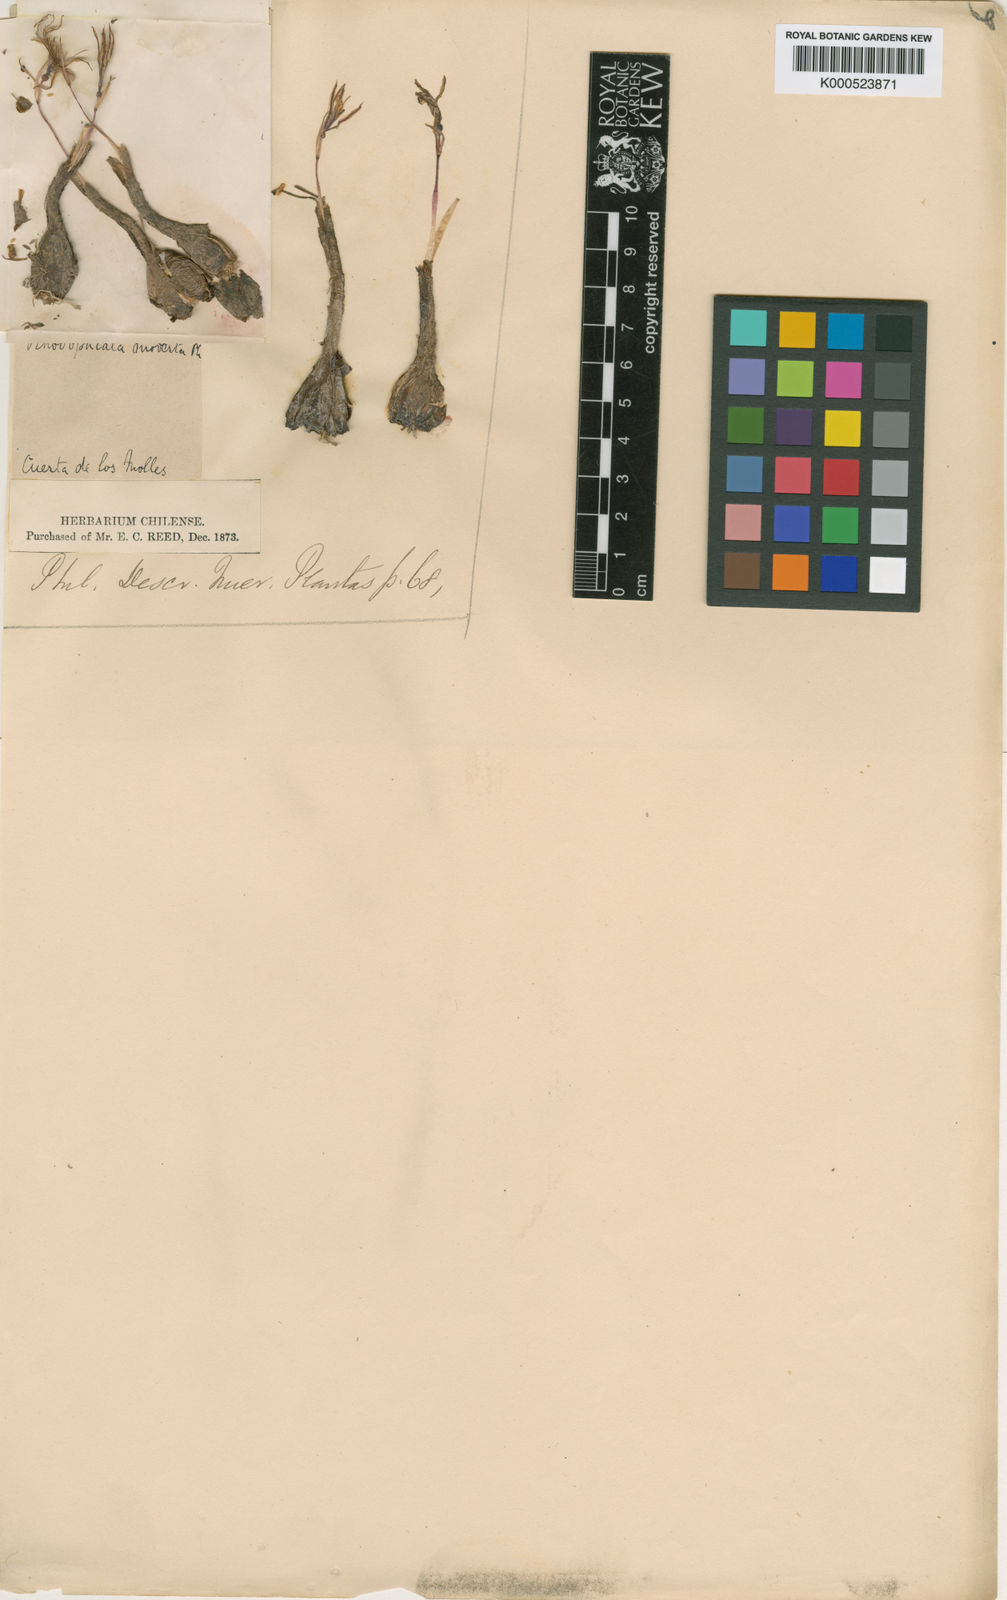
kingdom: Plantae
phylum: Tracheophyta
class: Liliopsida
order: Asparagales
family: Amaryllidaceae
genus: Traubia
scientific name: Traubia modesta
